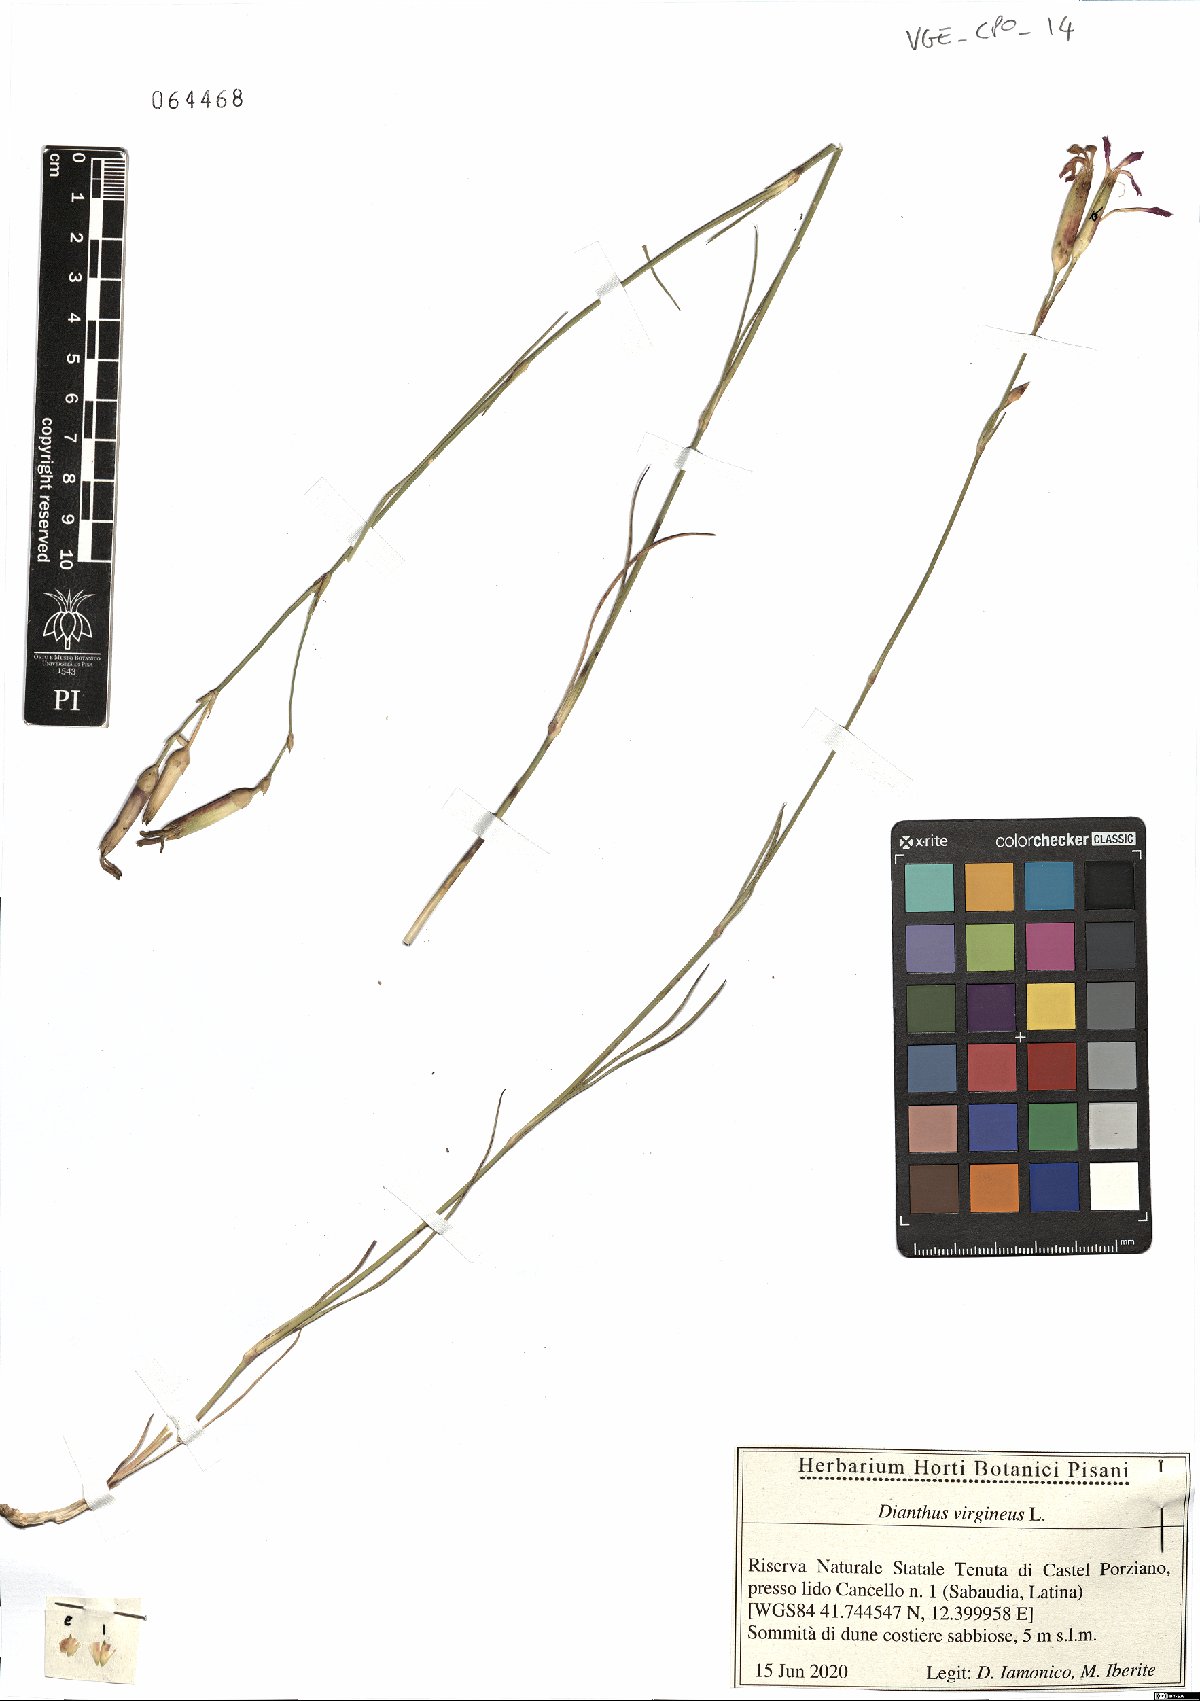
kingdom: Plantae
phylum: Tracheophyta
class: Magnoliopsida
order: Caryophyllales
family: Caryophyllaceae
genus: Dianthus
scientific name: Dianthus virgineus
